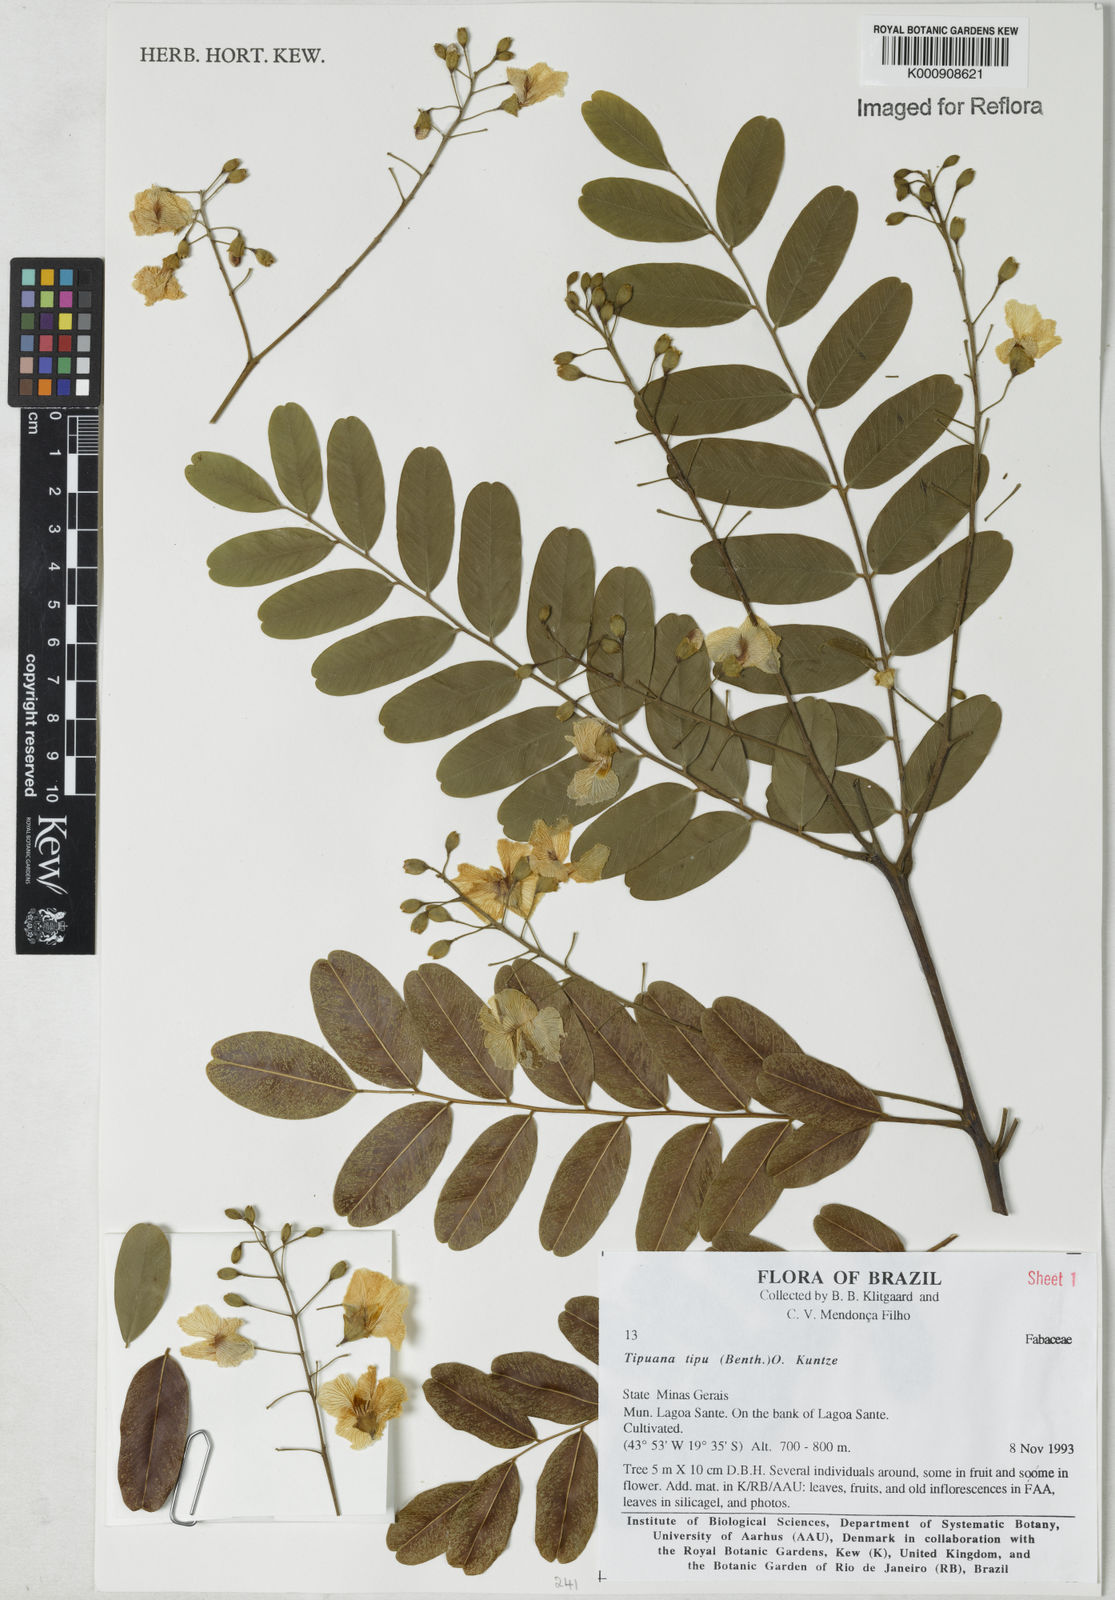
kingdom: Plantae
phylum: Tracheophyta
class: Magnoliopsida
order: Fabales
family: Fabaceae
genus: Tipuana
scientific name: Tipuana tipu
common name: Tiputree
